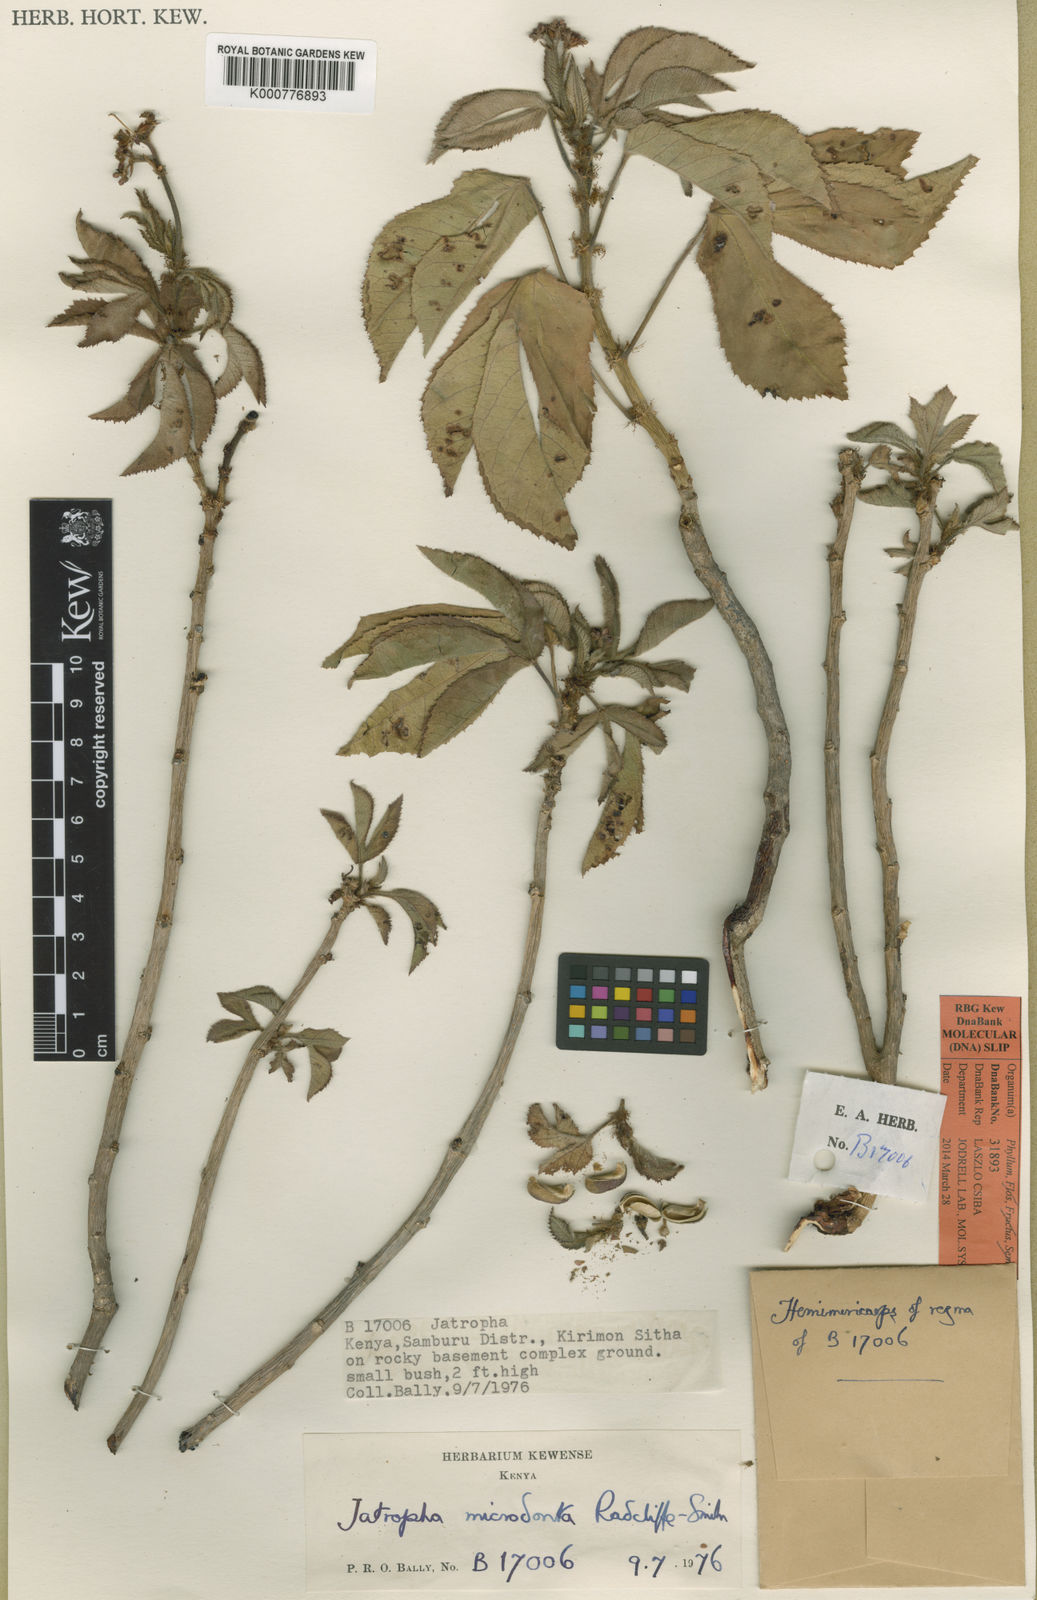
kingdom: Plantae
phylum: Tracheophyta
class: Magnoliopsida
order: Malpighiales
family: Euphorbiaceae
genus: Jatropha
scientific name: Jatropha microdonta
